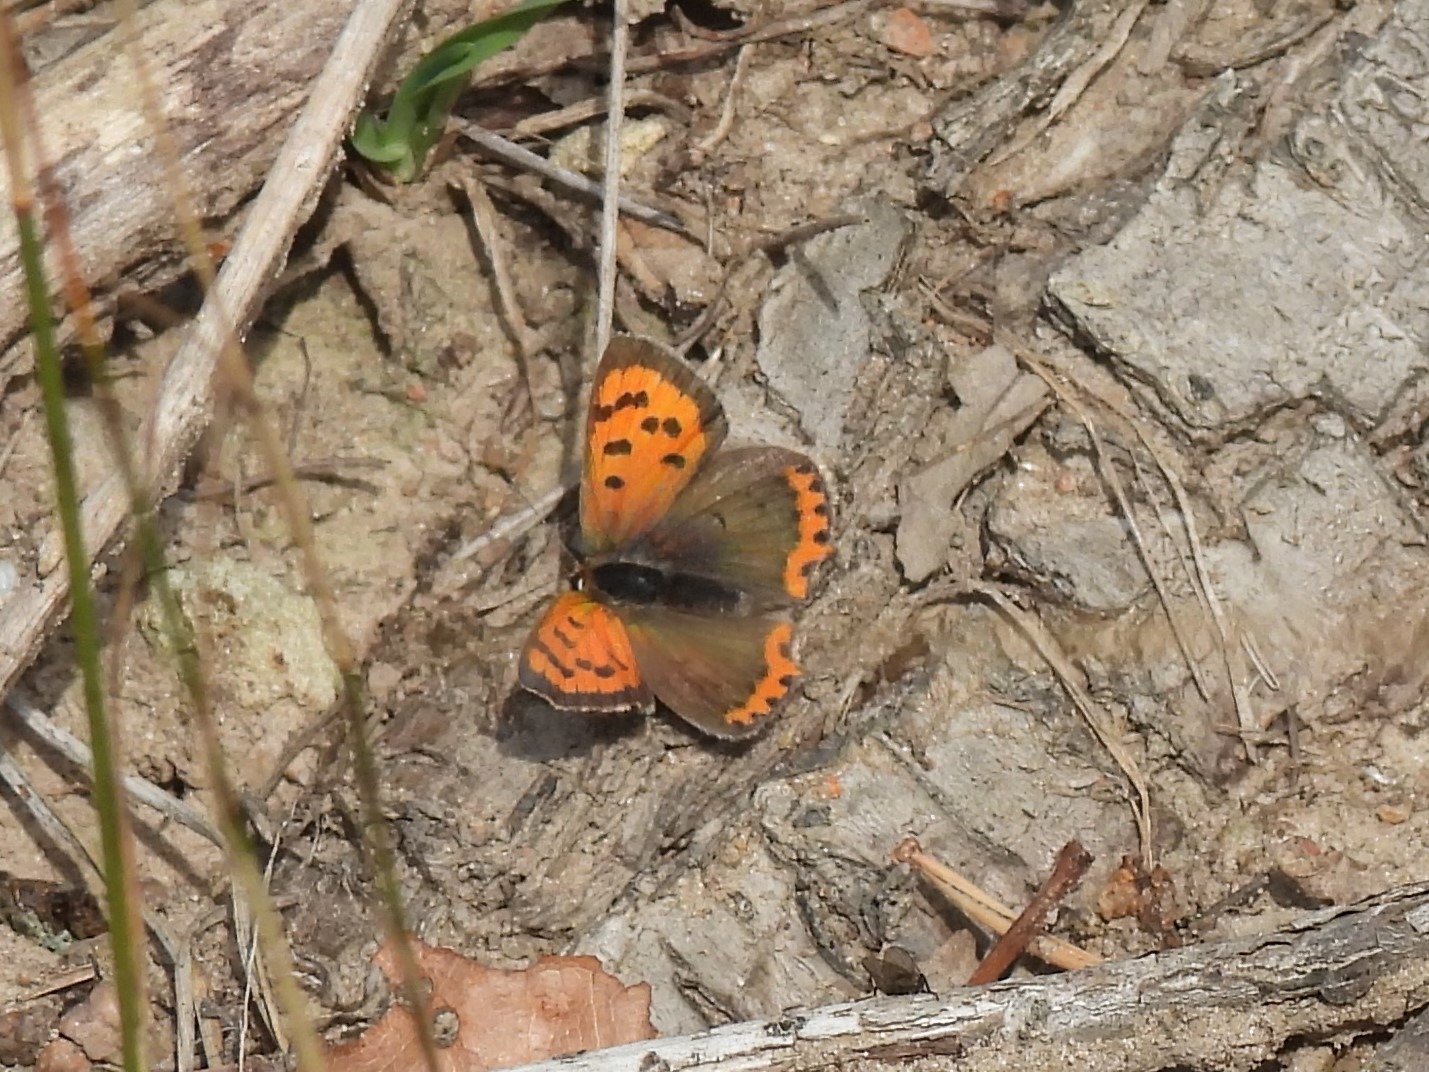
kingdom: Animalia
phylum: Arthropoda
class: Insecta
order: Lepidoptera
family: Lycaenidae
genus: Lycaena
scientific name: Lycaena phlaeas
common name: Lille ildfugl
